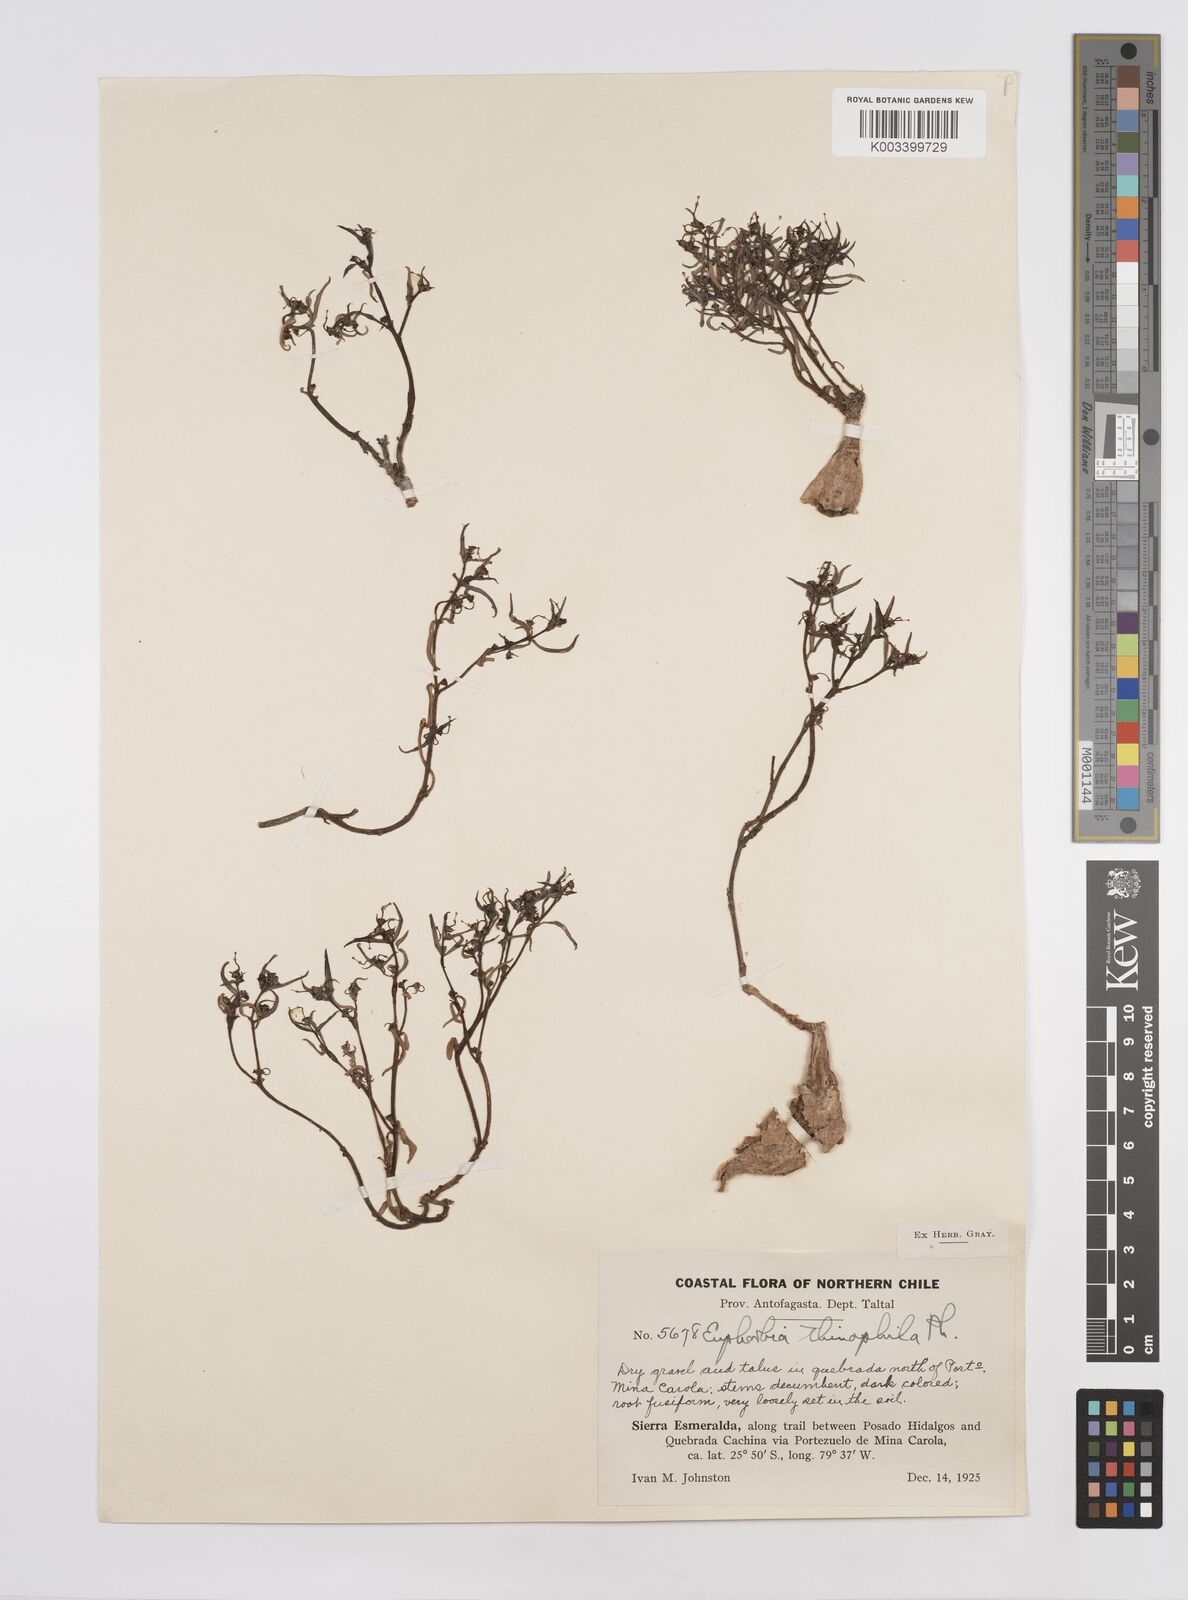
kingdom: Plantae
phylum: Tracheophyta
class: Magnoliopsida
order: Malpighiales
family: Euphorbiaceae
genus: Euphorbia
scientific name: Euphorbia thinophila
